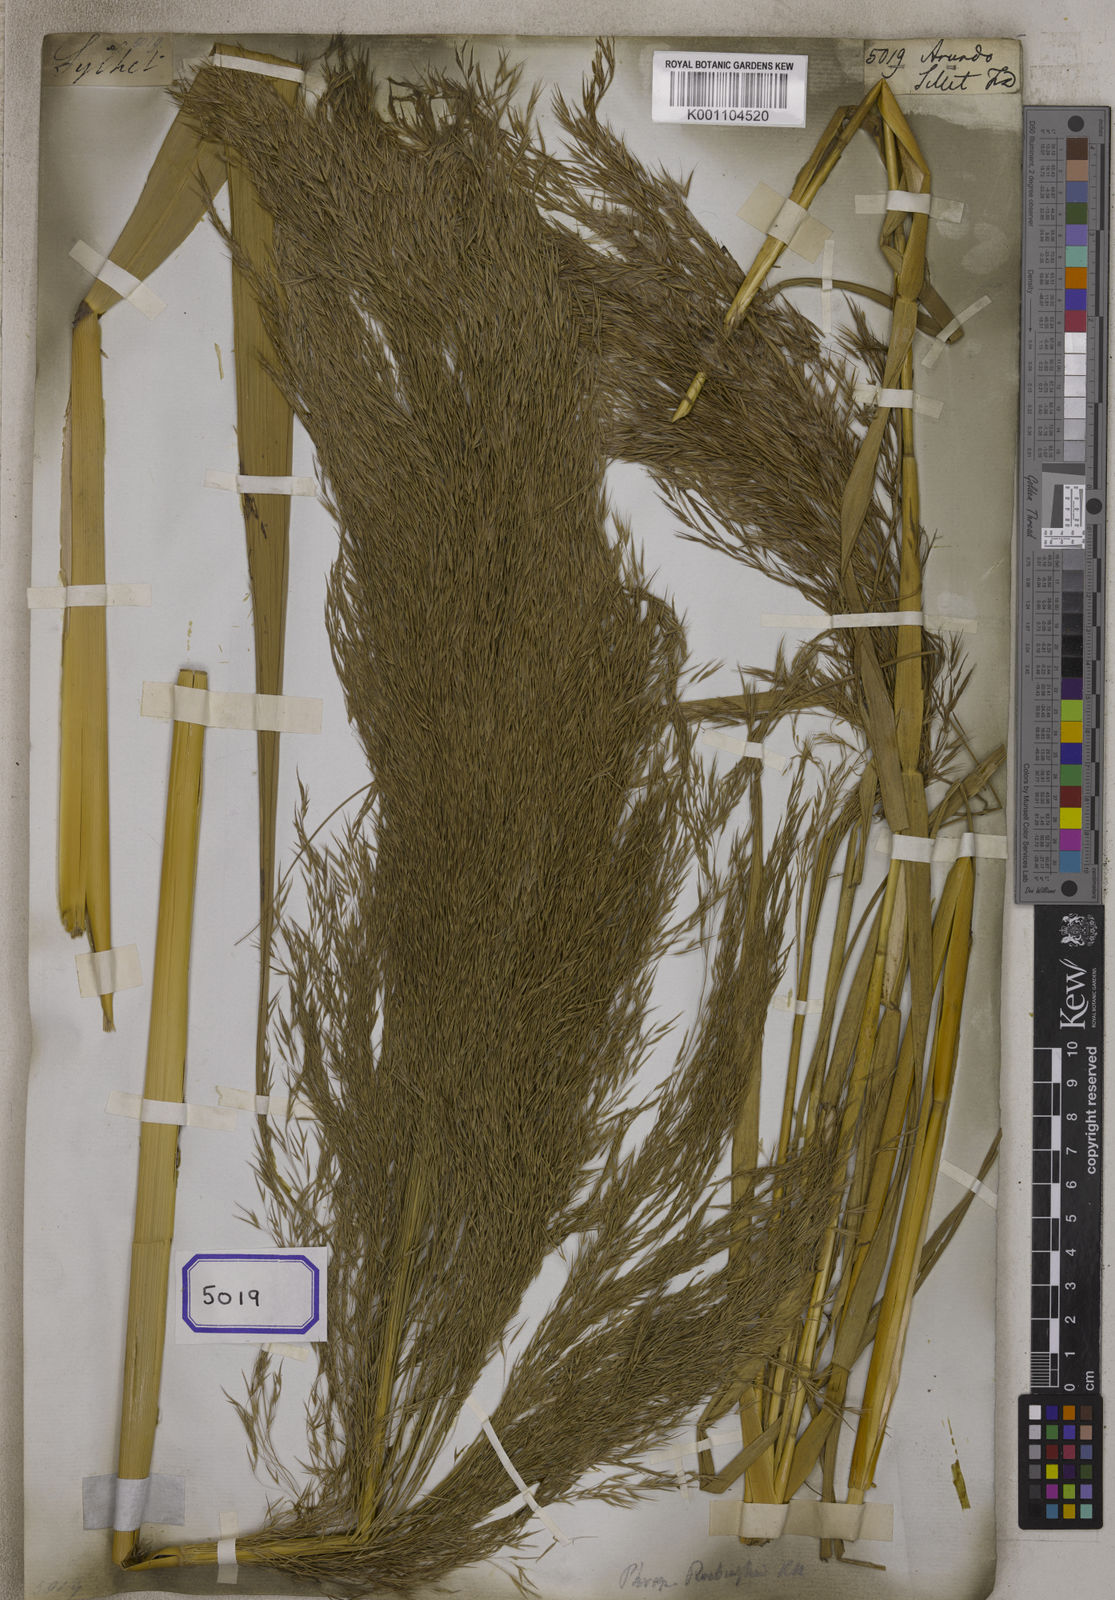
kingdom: Plantae
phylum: Tracheophyta
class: Liliopsida
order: Poales
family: Poaceae
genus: Arundo
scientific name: Arundo
